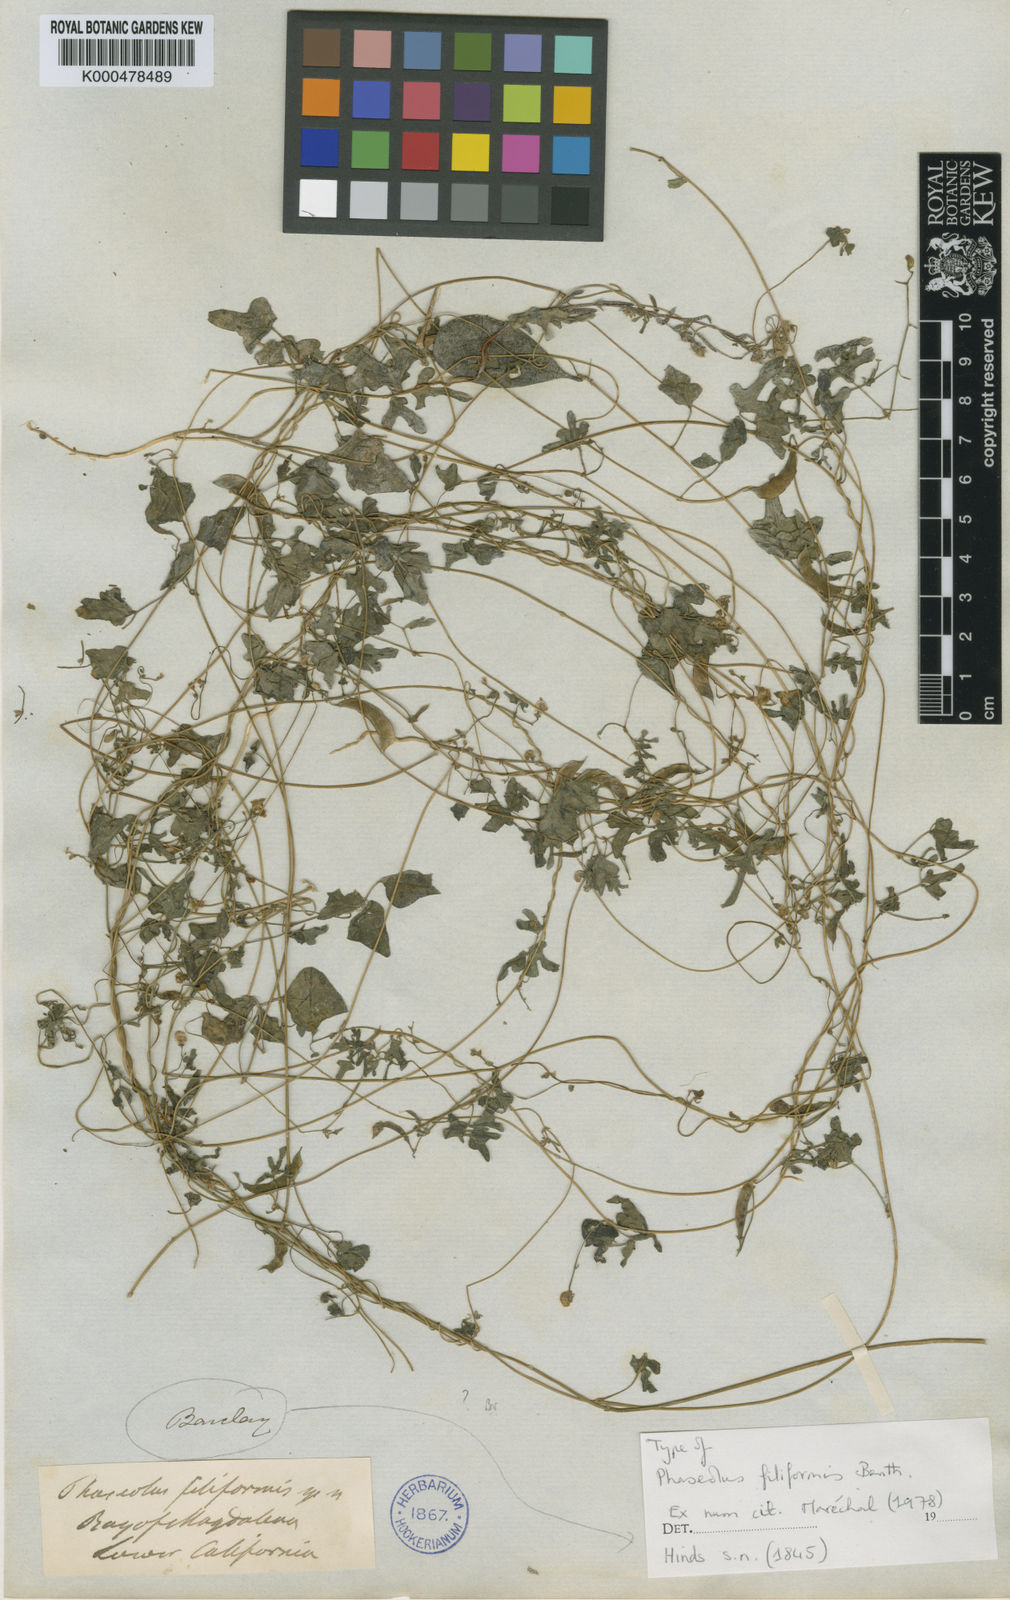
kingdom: Plantae
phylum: Tracheophyta
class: Magnoliopsida
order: Fabales
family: Fabaceae
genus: Phaseolus
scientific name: Phaseolus filiformis
